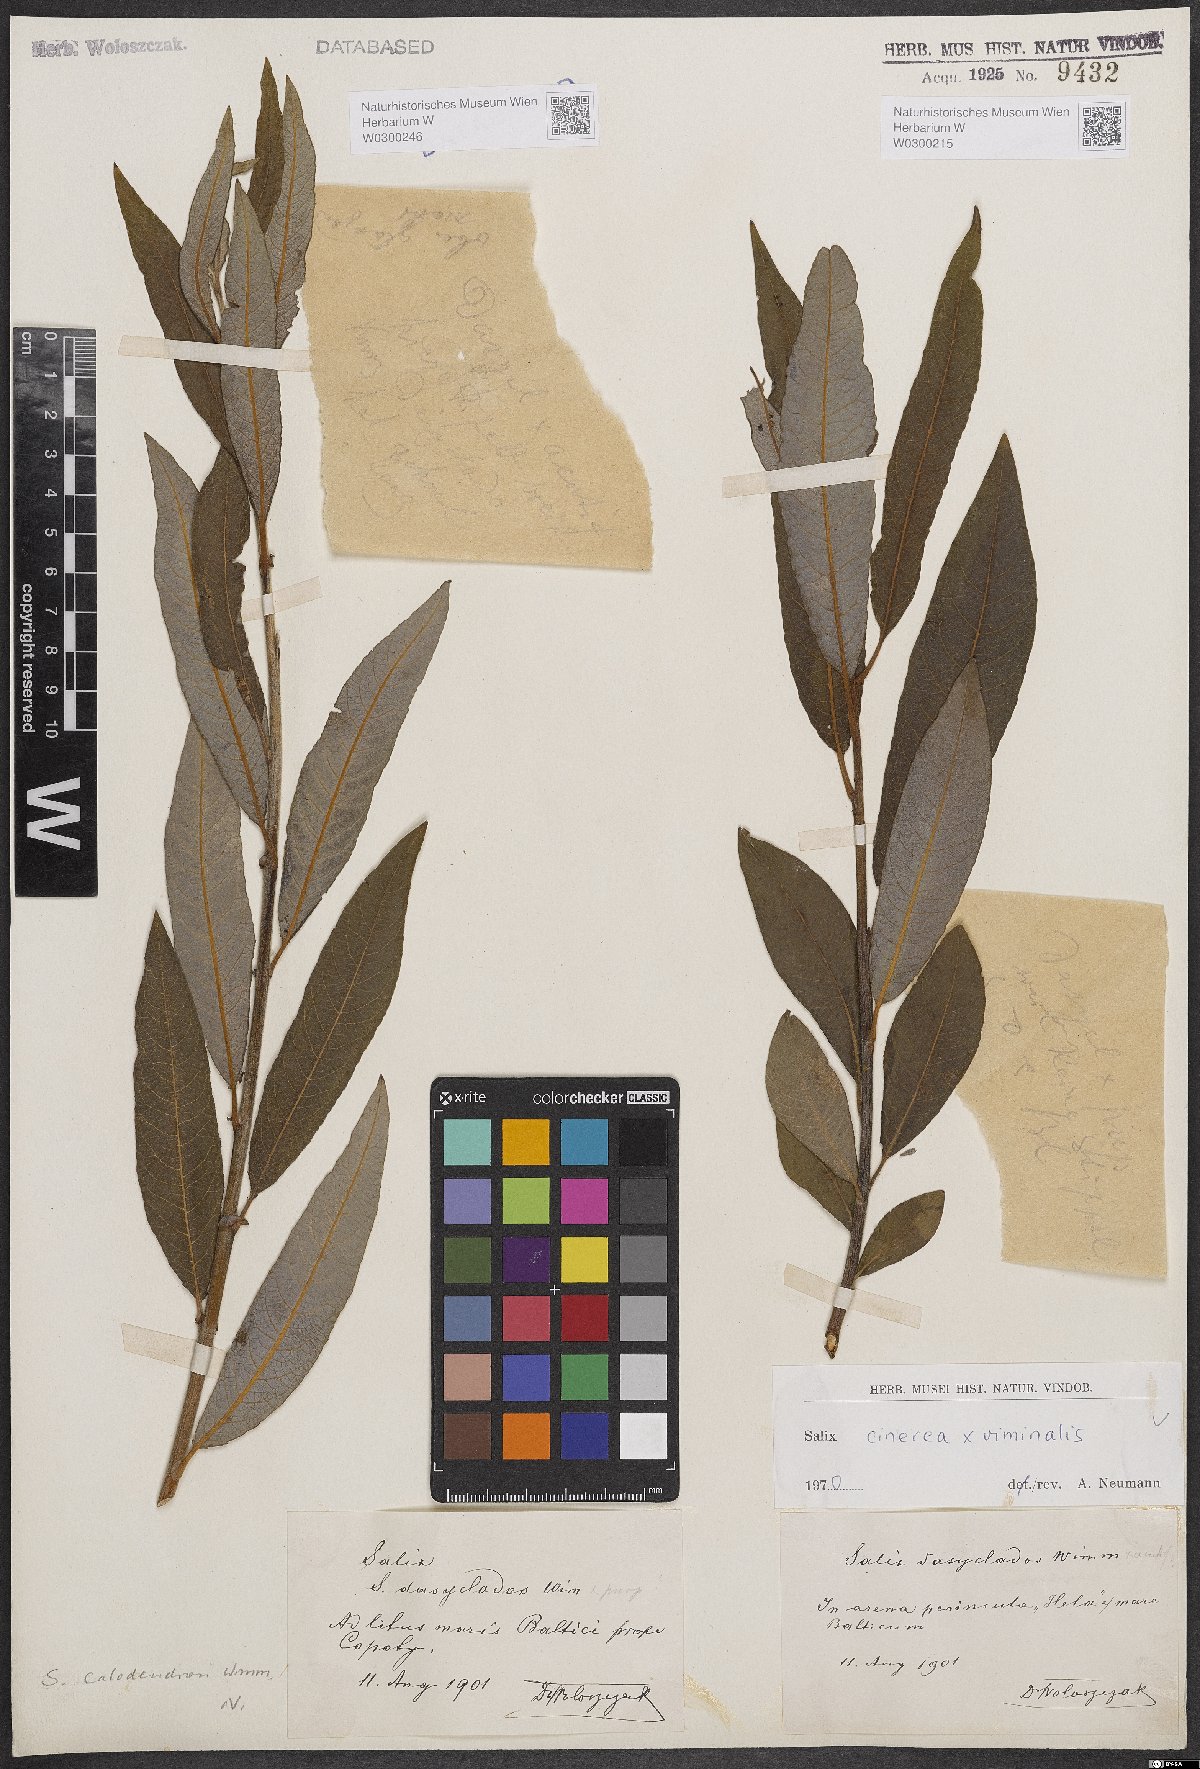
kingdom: Plantae
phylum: Tracheophyta
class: Magnoliopsida
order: Malpighiales
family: Salicaceae
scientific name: Salicaceae
